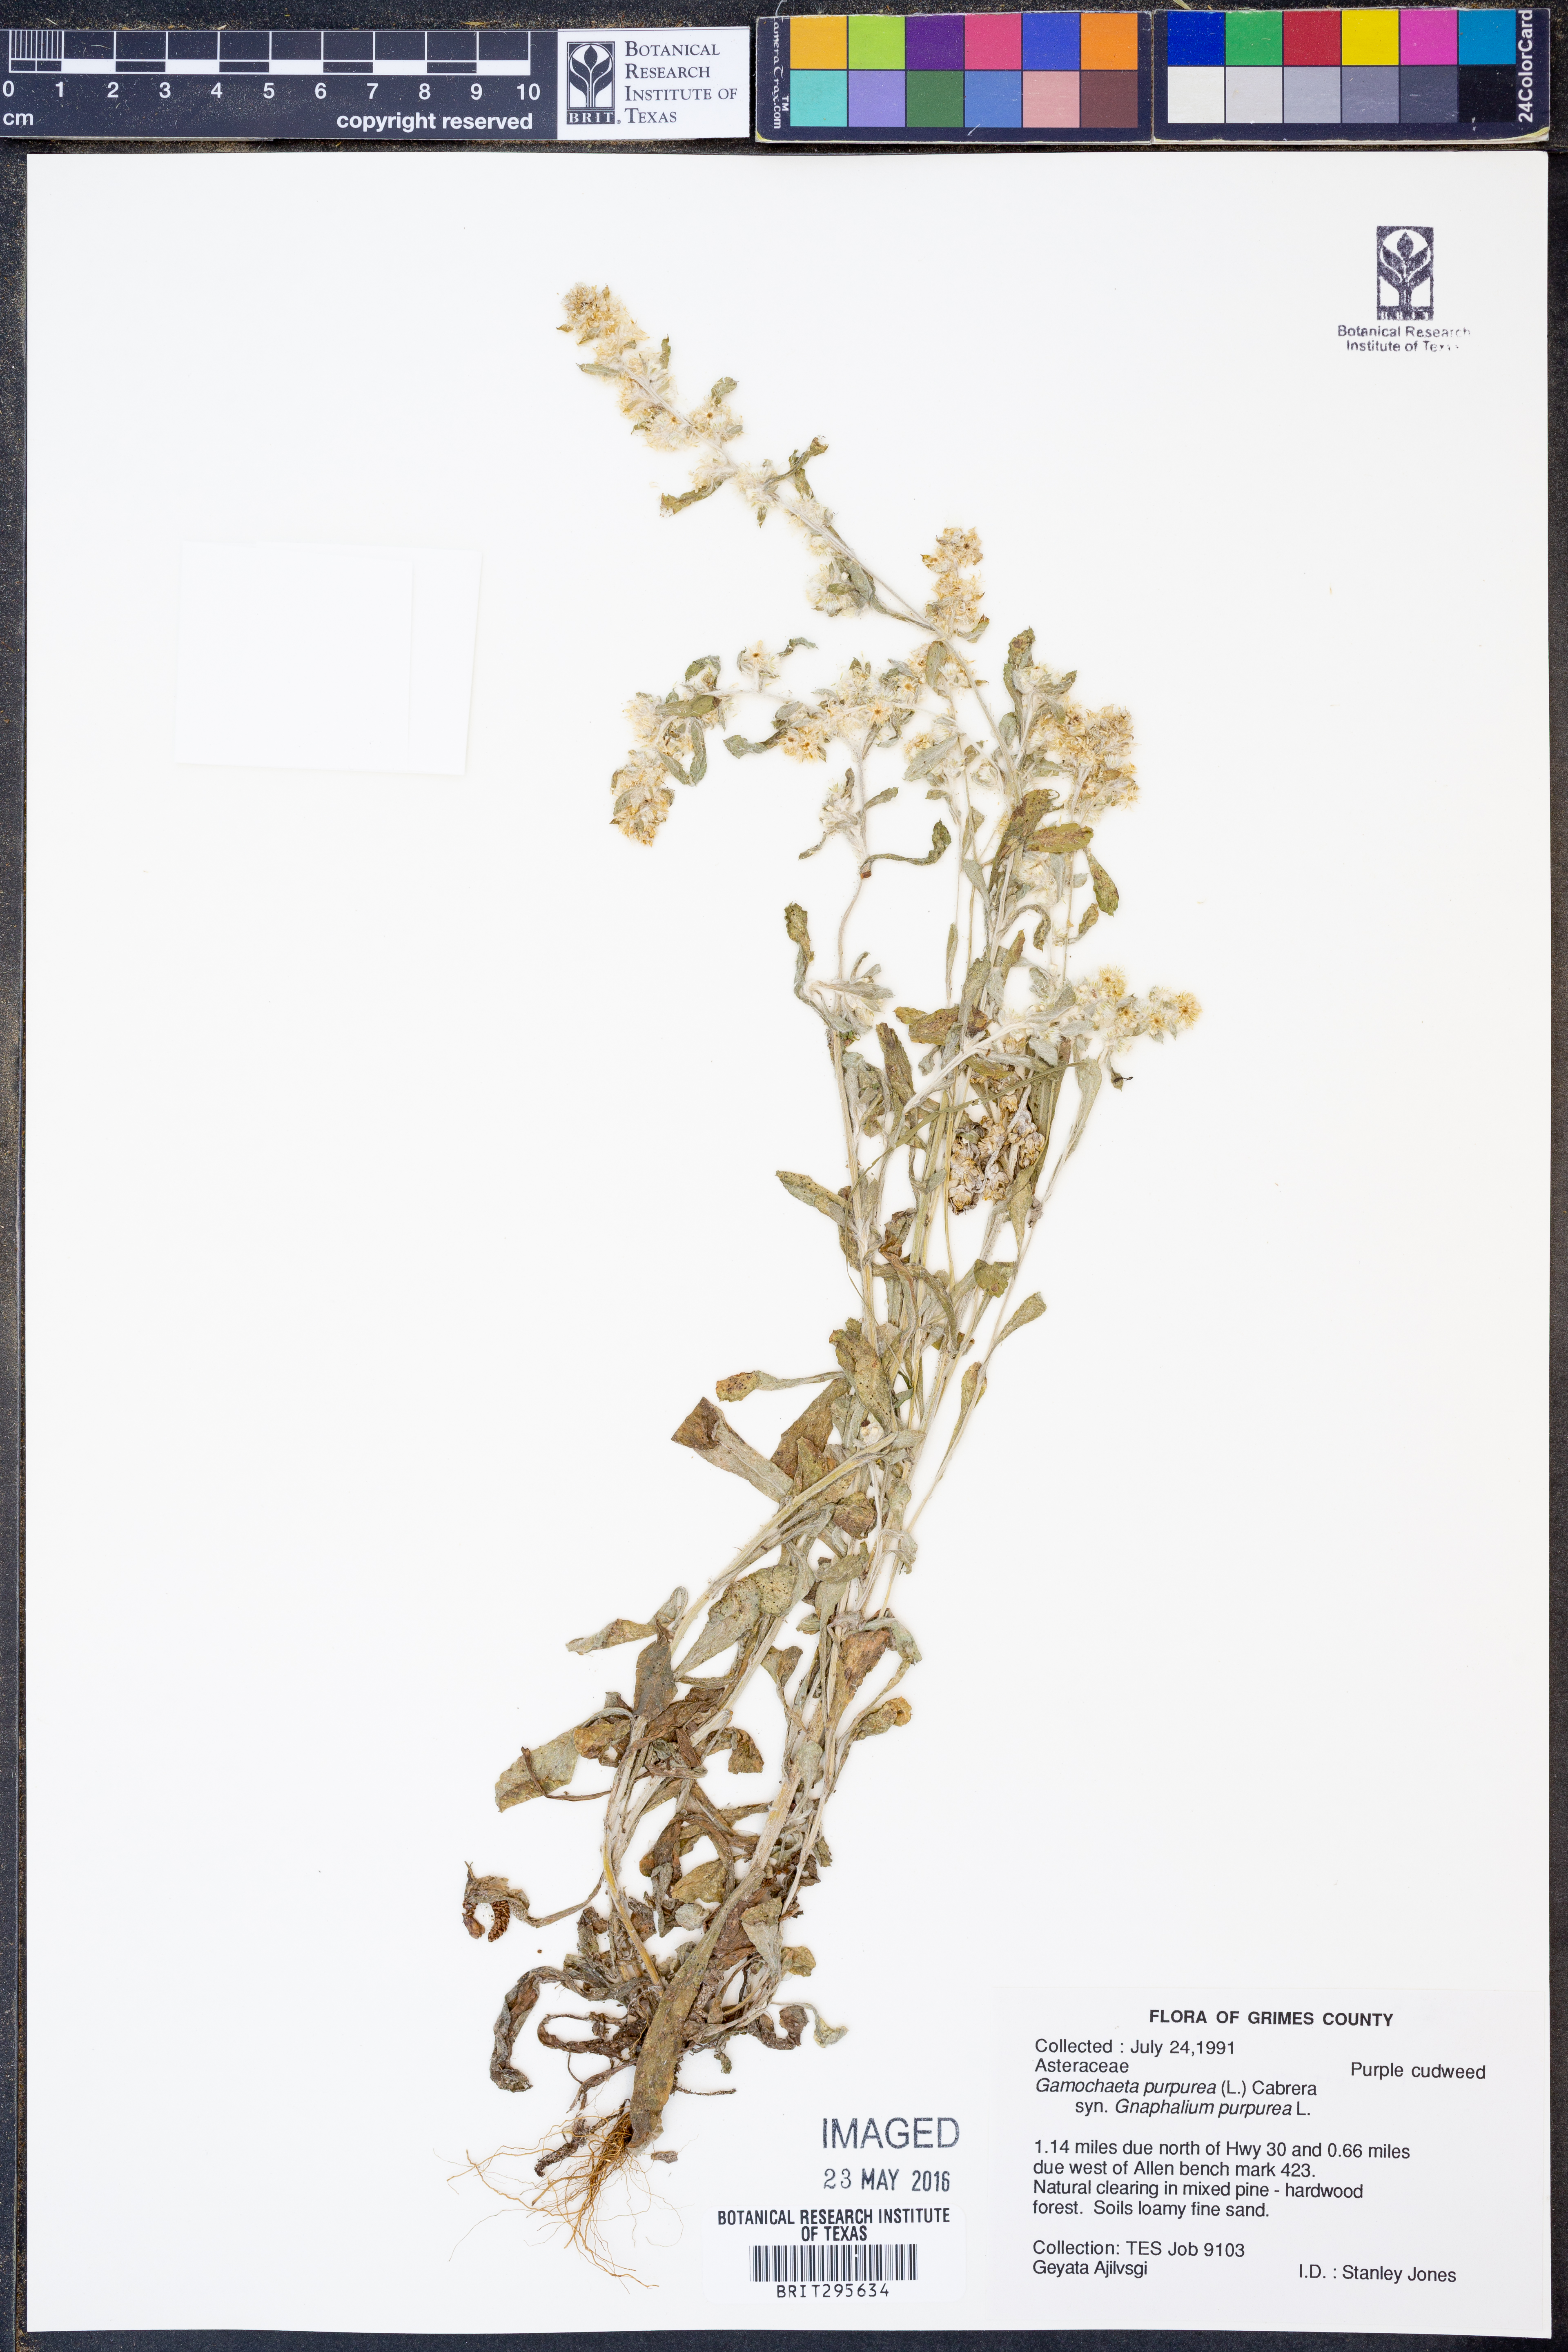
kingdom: Plantae
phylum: Tracheophyta
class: Magnoliopsida
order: Asterales
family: Asteraceae
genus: Gamochaeta
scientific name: Gamochaeta purpurea
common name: Purple cudweed
